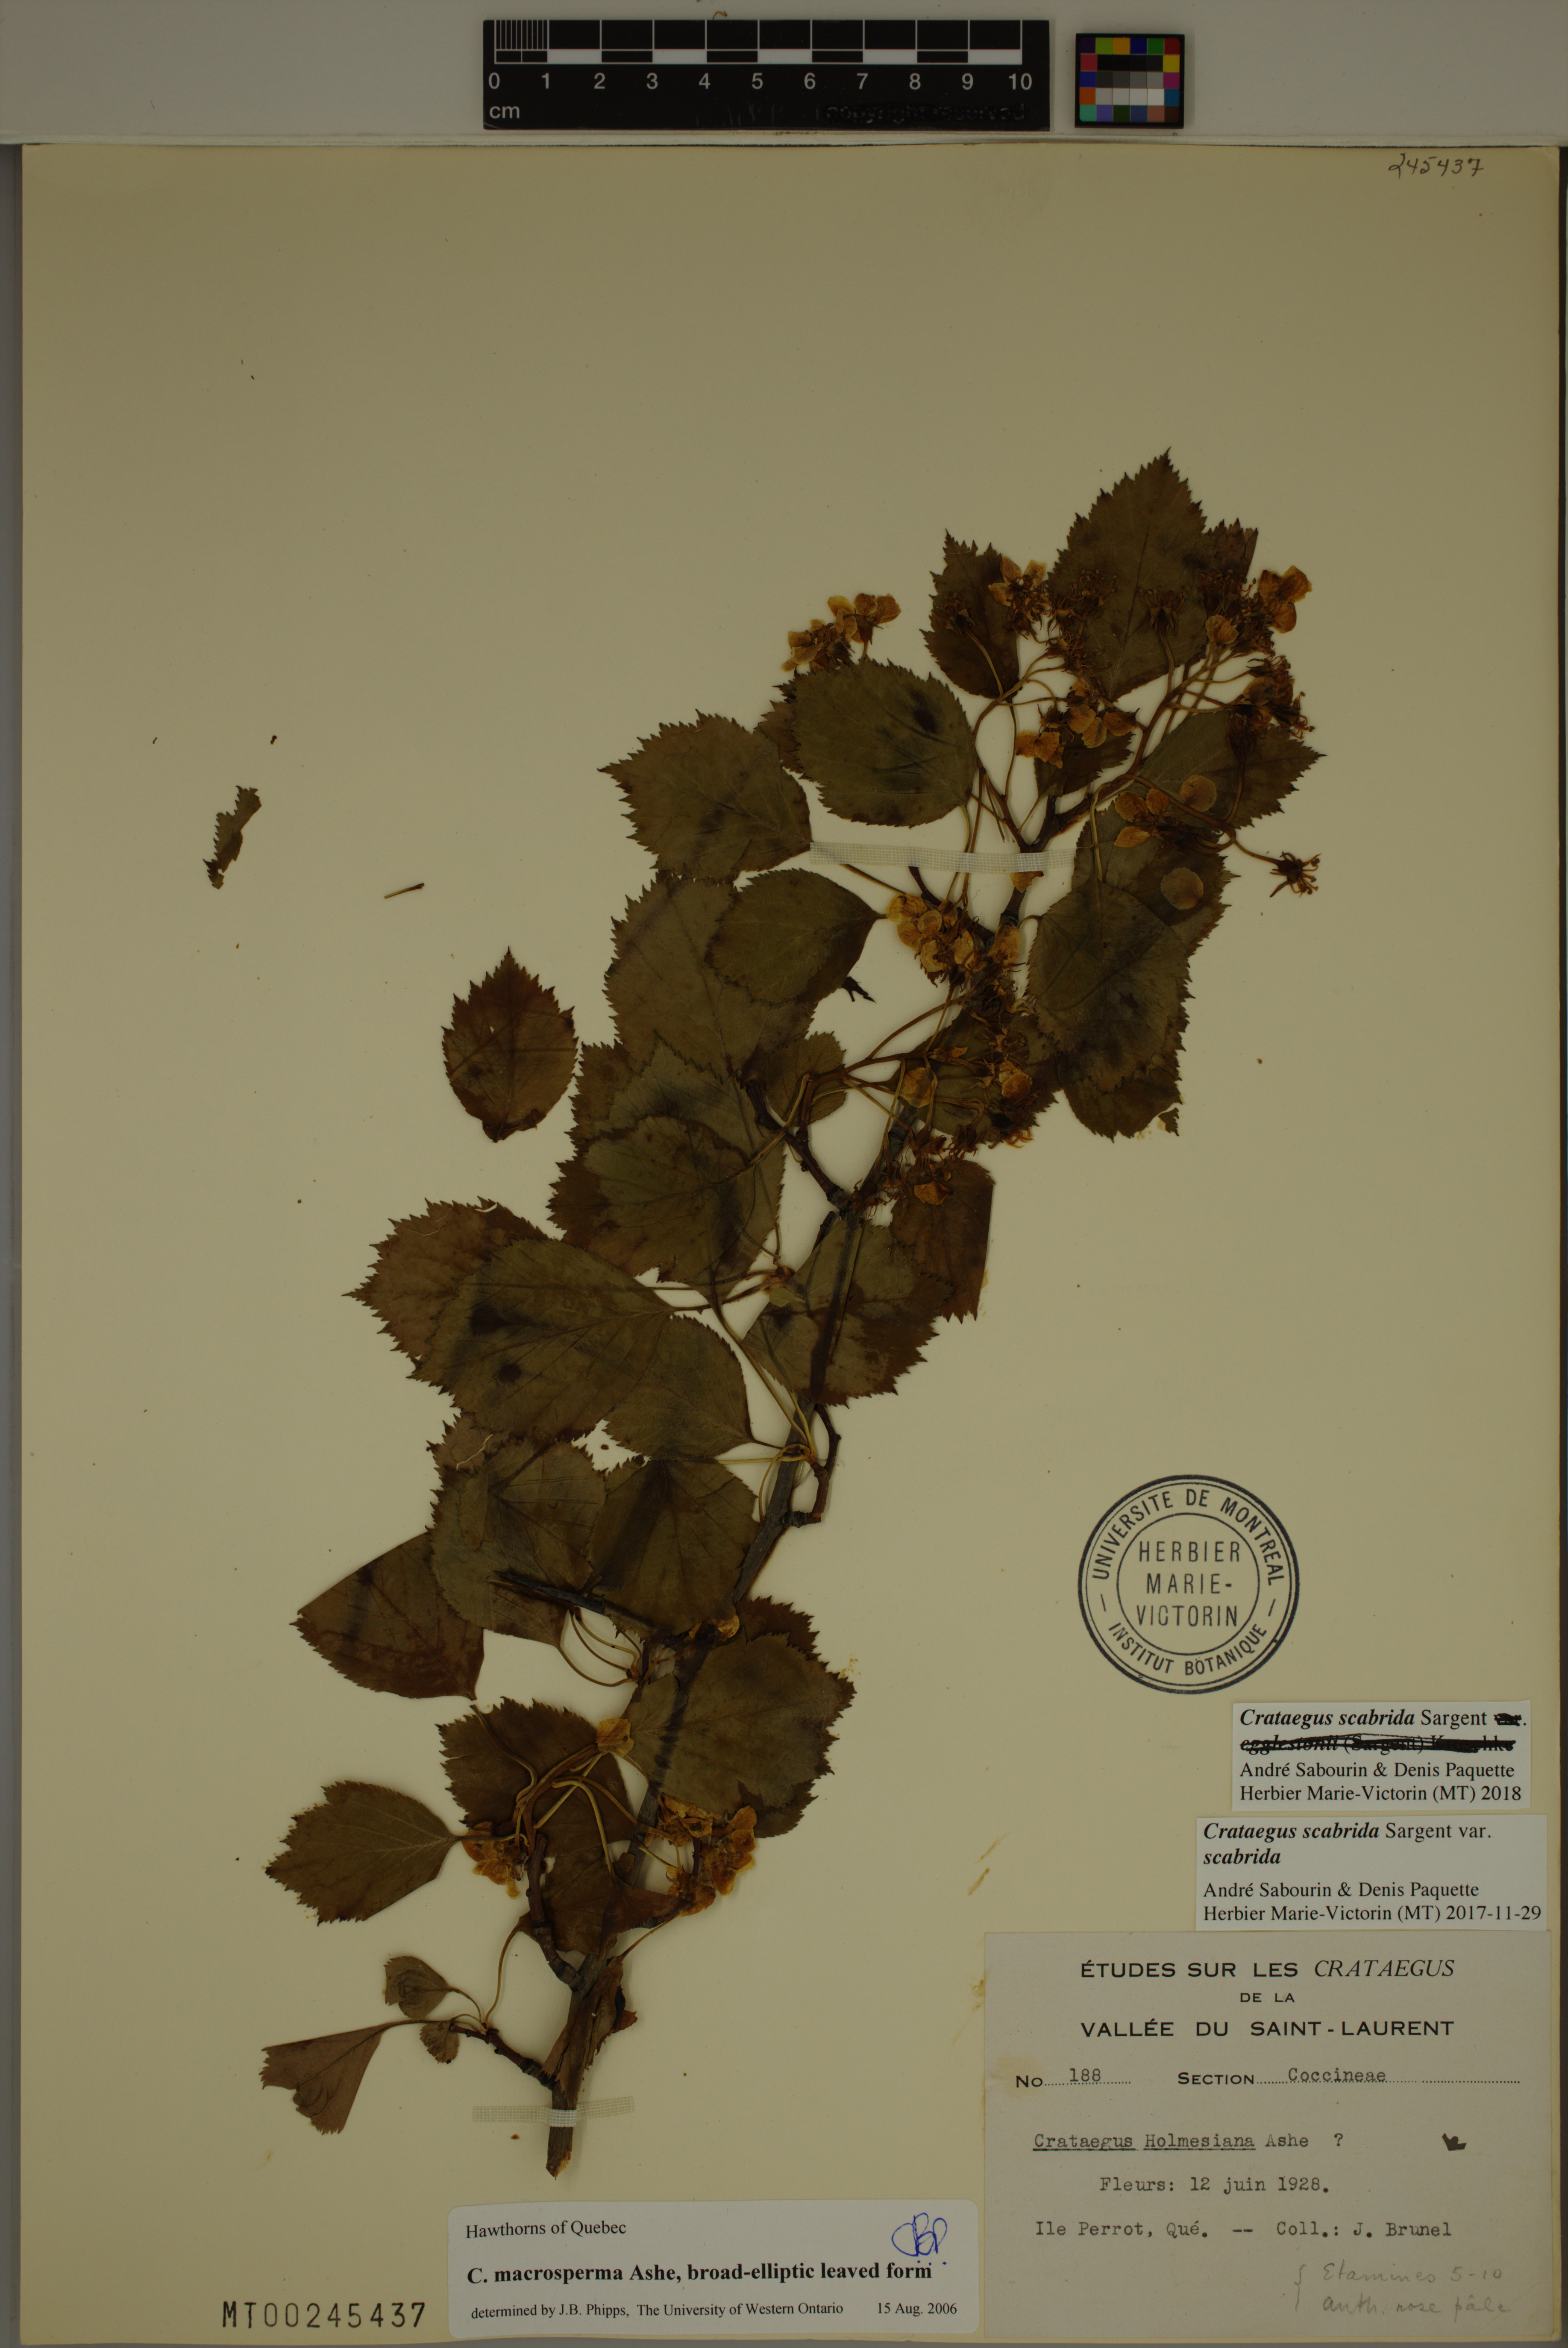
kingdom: Plantae
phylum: Tracheophyta
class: Magnoliopsida
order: Rosales
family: Rosaceae
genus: Crataegus
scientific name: Crataegus scabrida
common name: Rough hawthorn
